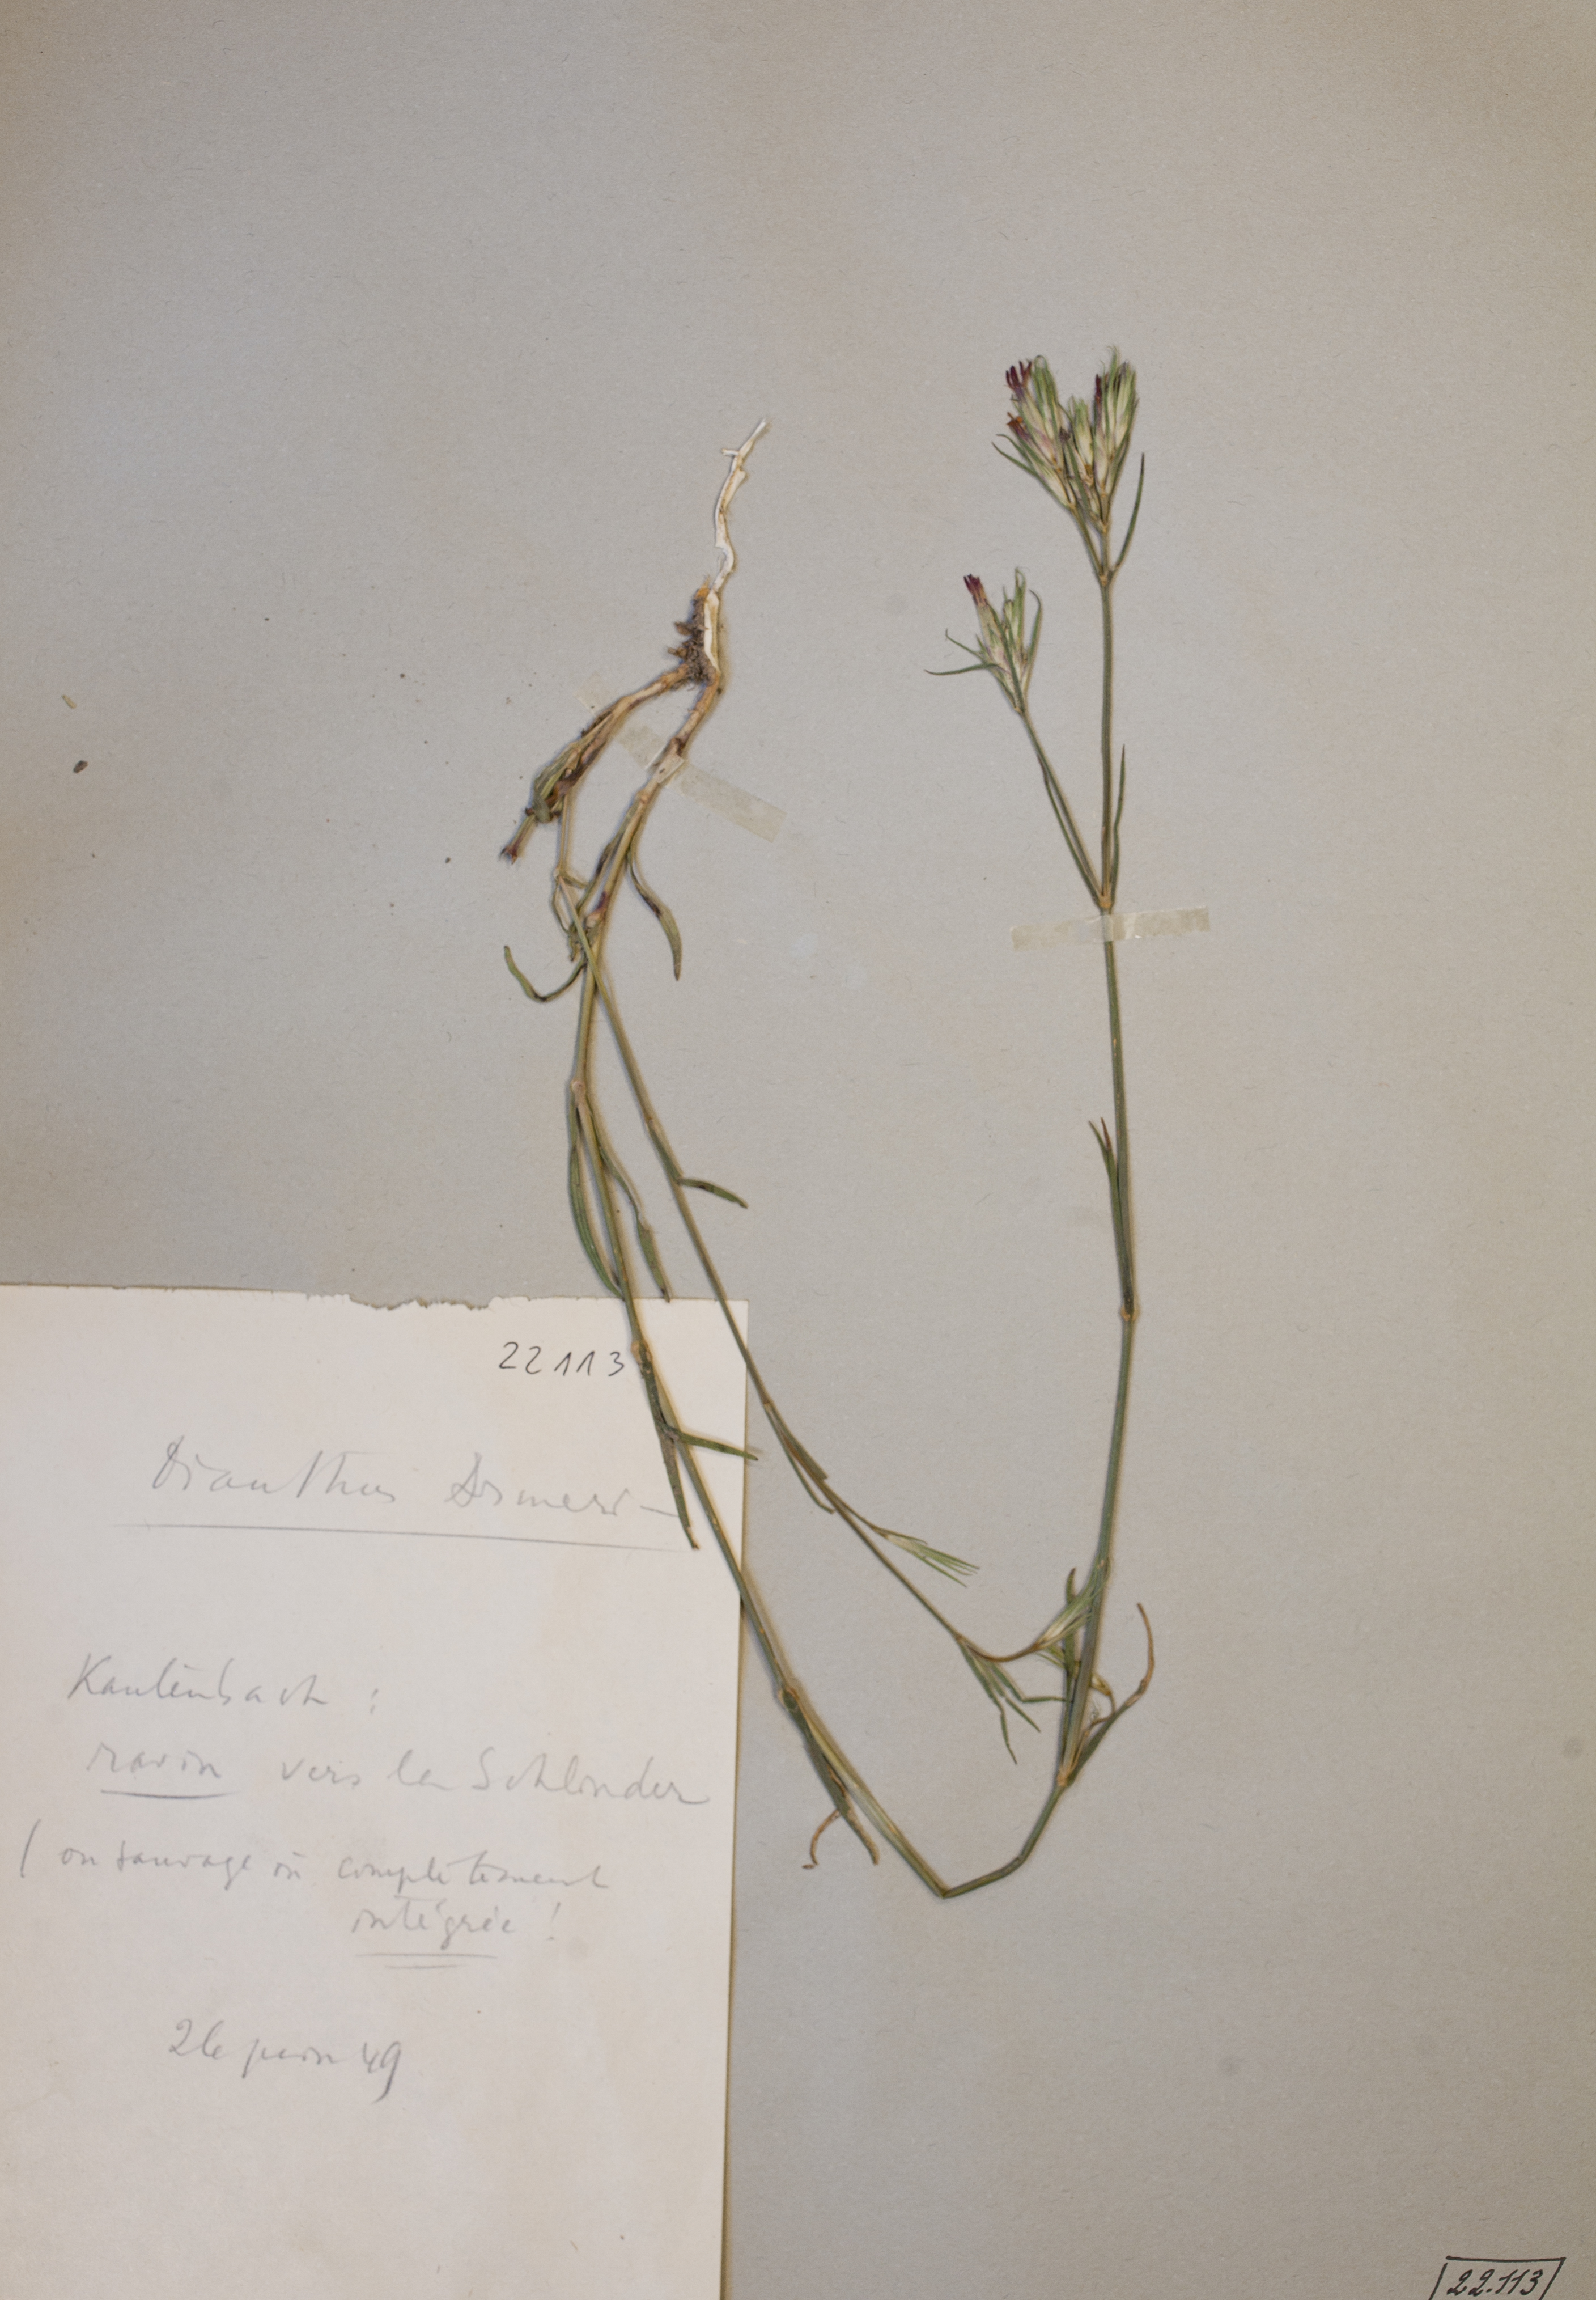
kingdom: Plantae
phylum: Tracheophyta
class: Magnoliopsida
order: Caryophyllales
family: Caryophyllaceae
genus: Dianthus
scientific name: Dianthus armeria
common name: Deptford pink
